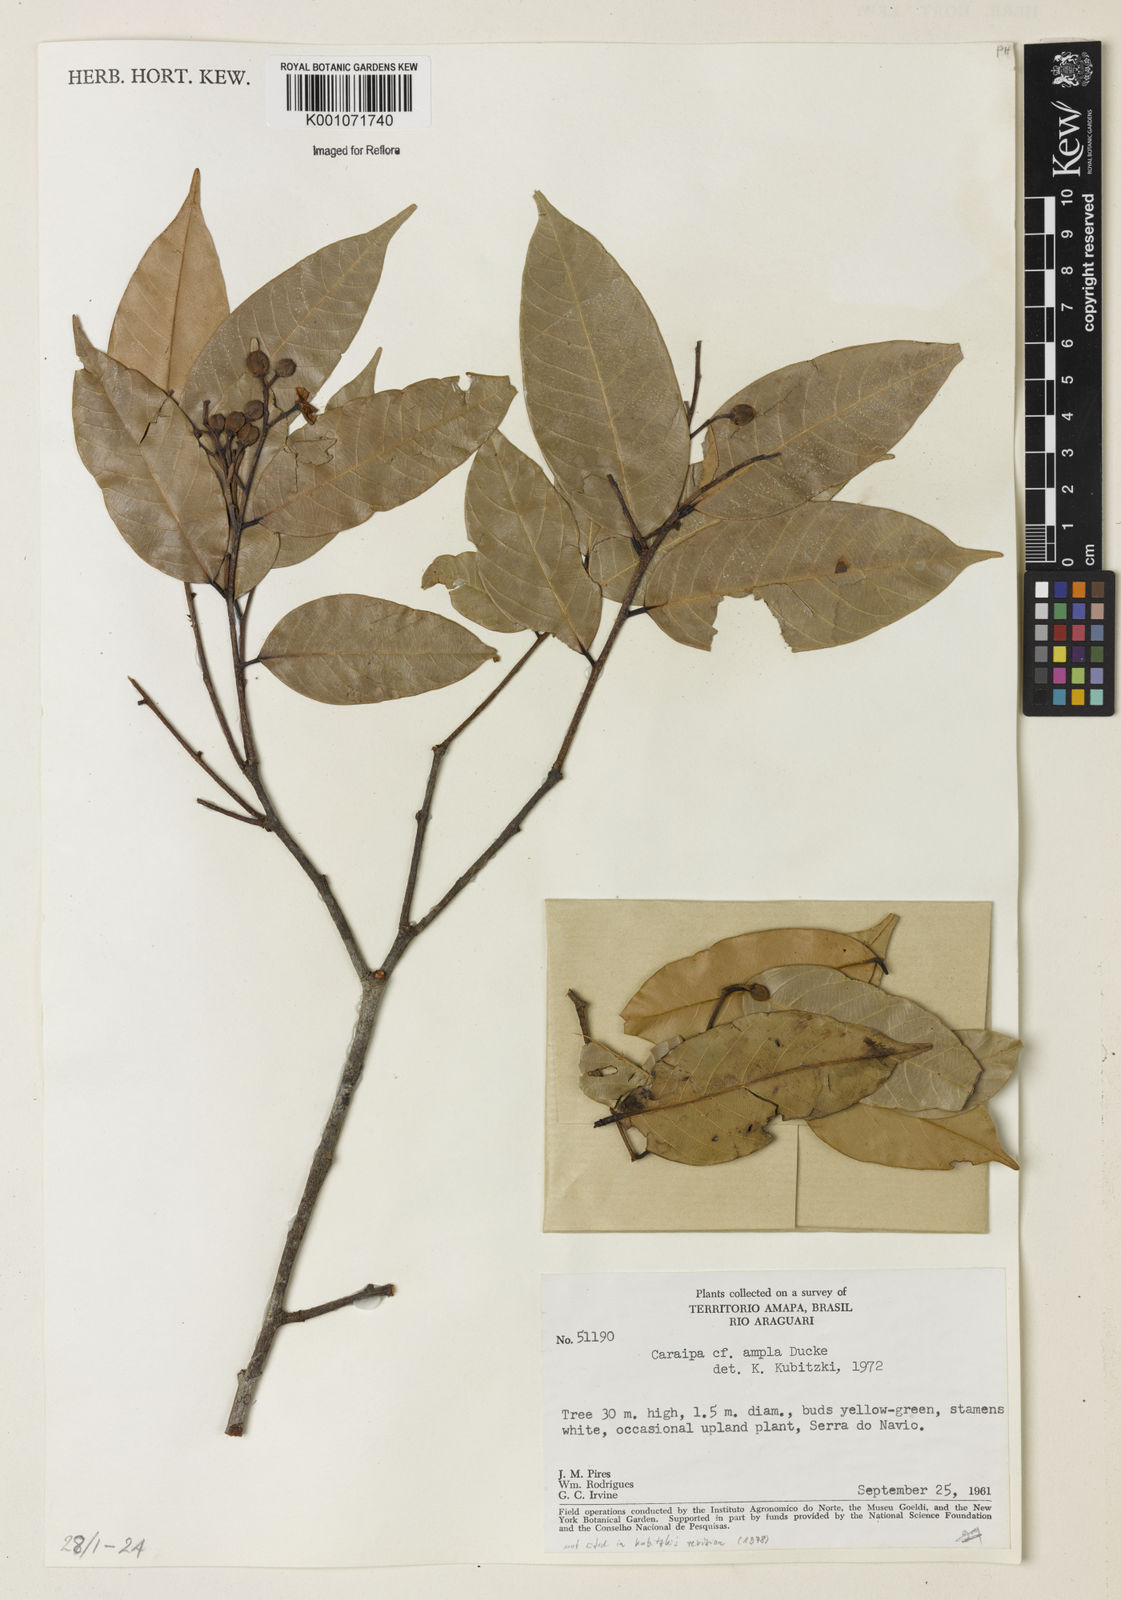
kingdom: Plantae
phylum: Tracheophyta
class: Magnoliopsida
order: Malpighiales
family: Calophyllaceae
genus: Caraipa
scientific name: Caraipa ampla
